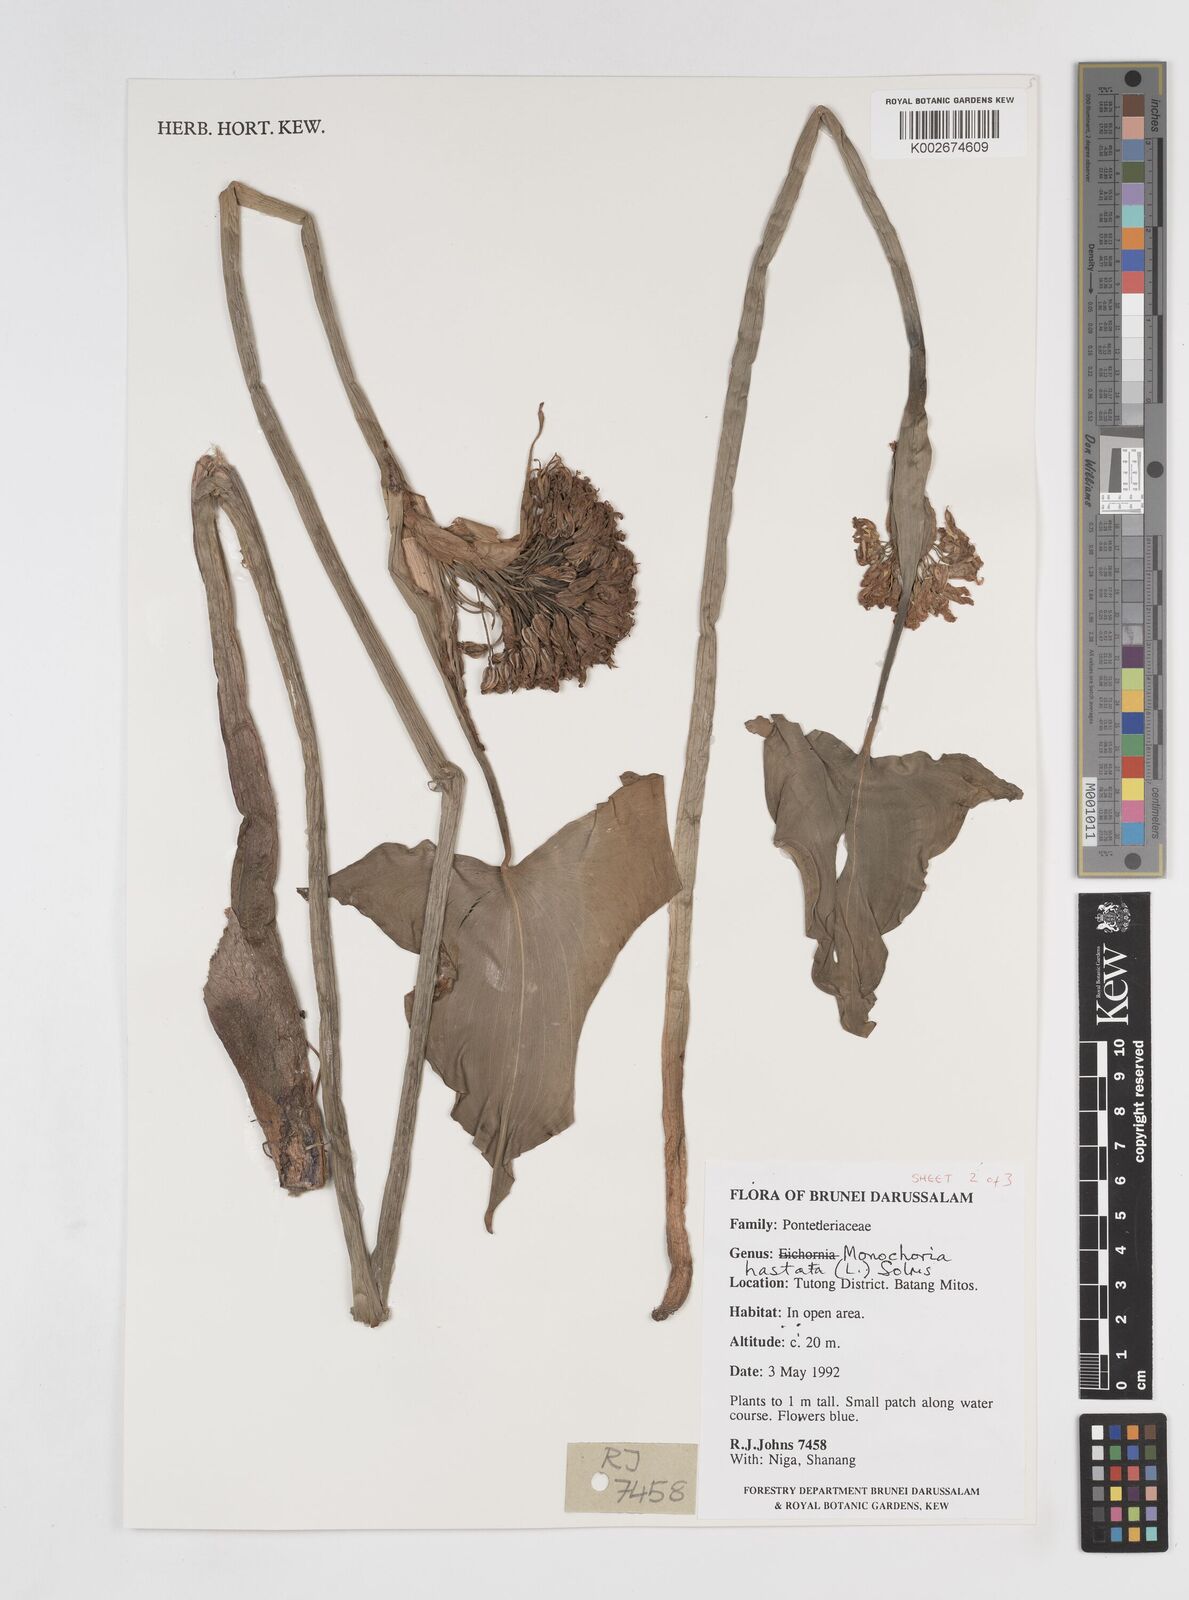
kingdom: Plantae
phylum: Tracheophyta
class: Liliopsida
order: Commelinales
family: Pontederiaceae
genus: Pontederia
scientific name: Pontederia hastata
